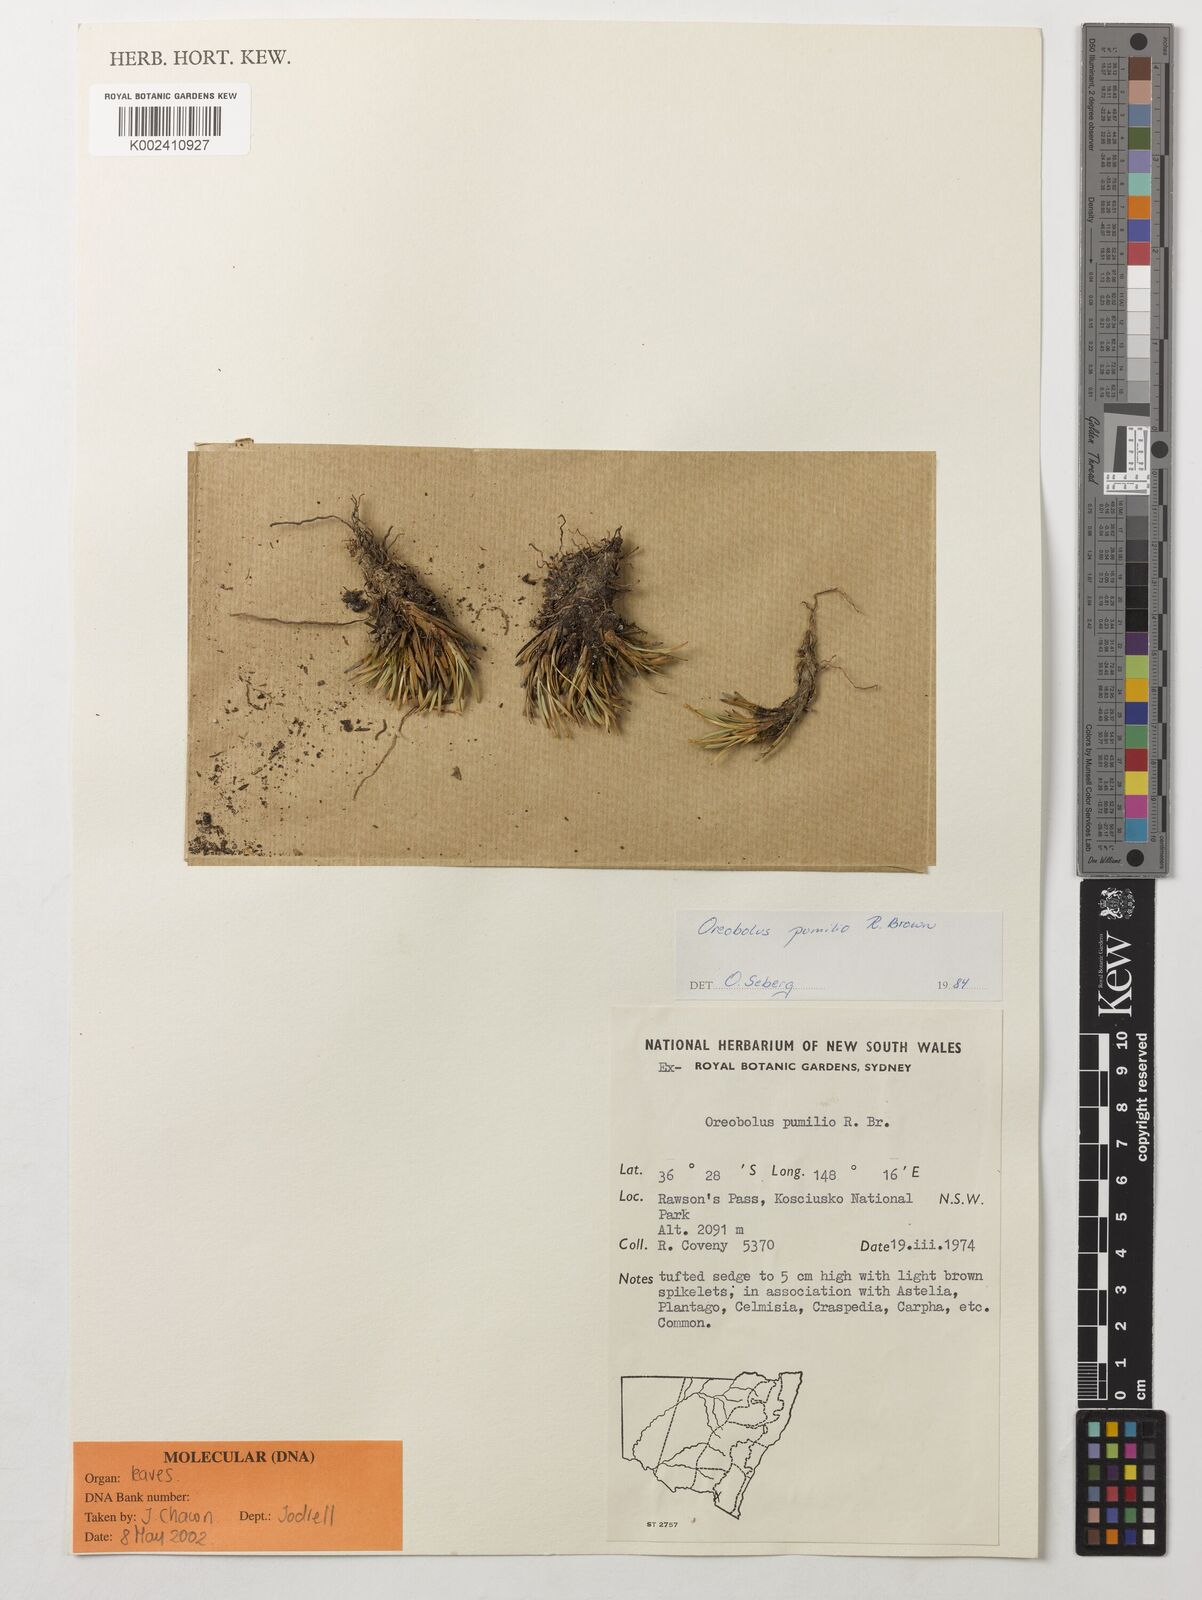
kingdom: Plantae
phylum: Tracheophyta
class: Liliopsida
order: Poales
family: Cyperaceae
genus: Oreobolus
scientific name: Oreobolus pumilio
